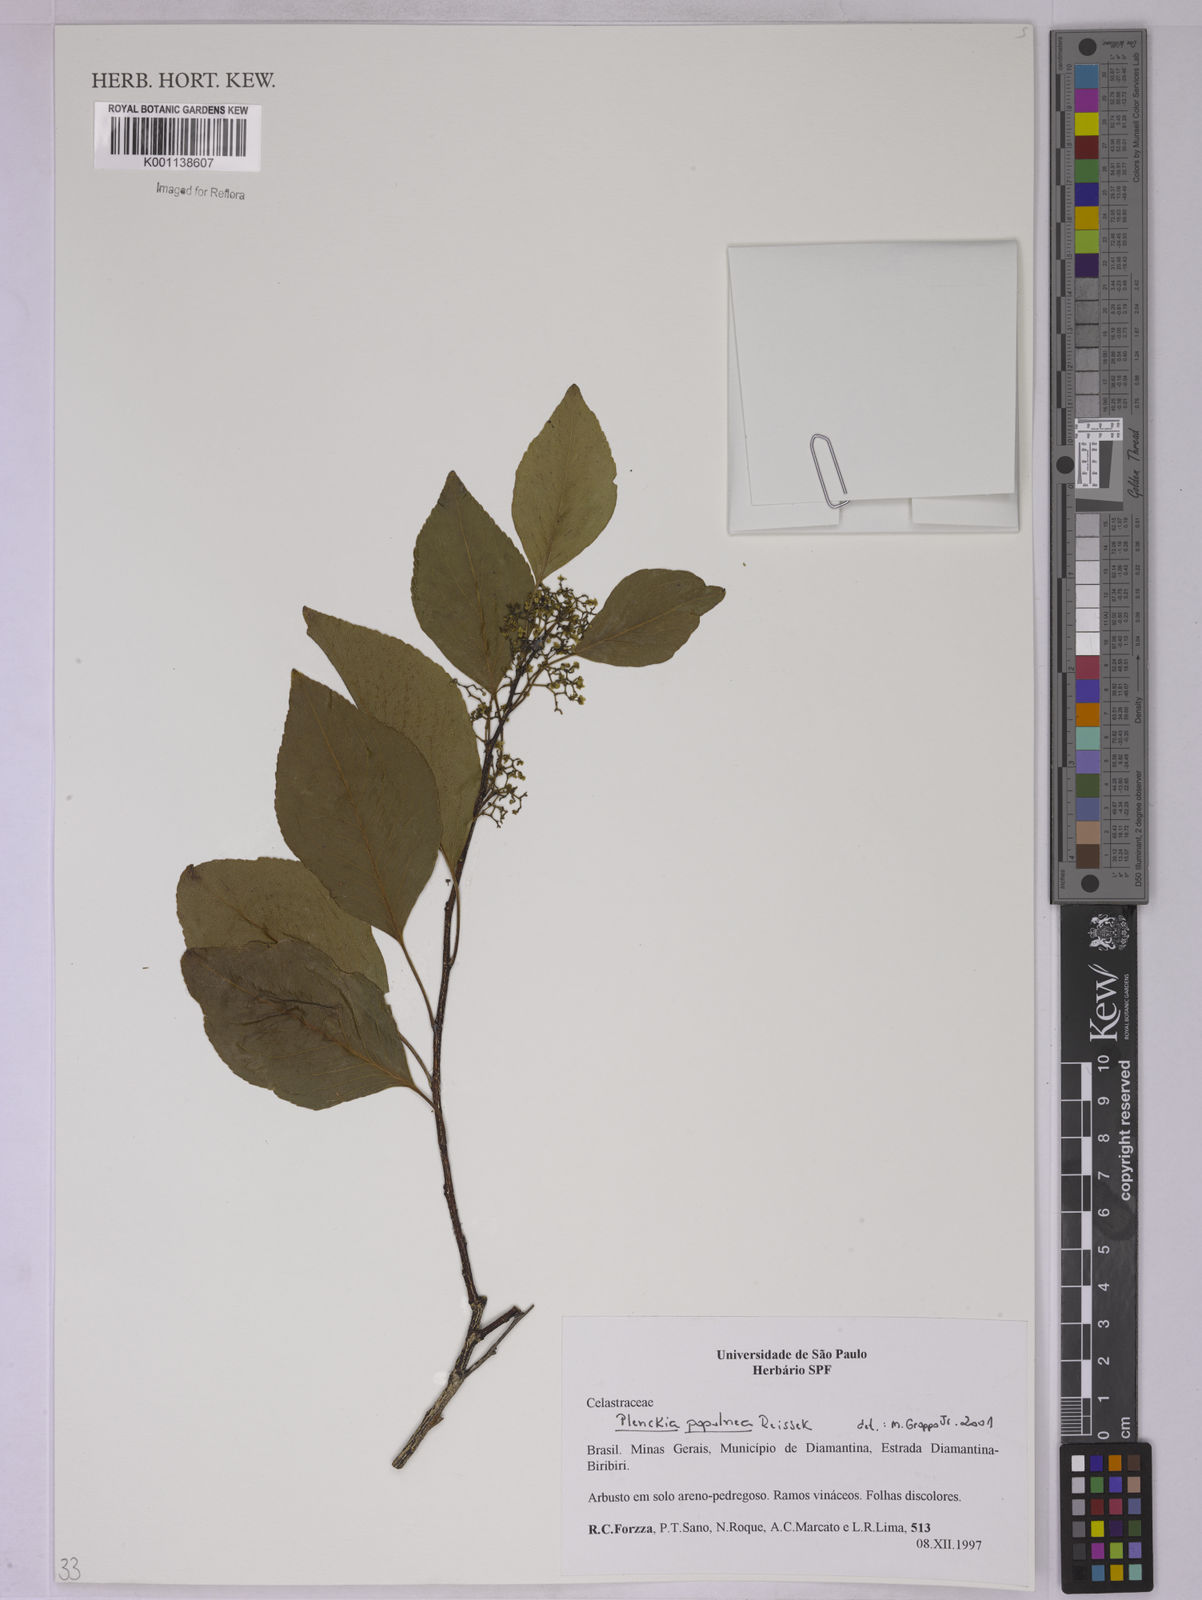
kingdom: Plantae
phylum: Tracheophyta
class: Magnoliopsida
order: Celastrales
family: Celastraceae
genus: Plenckia
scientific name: Plenckia populnea
